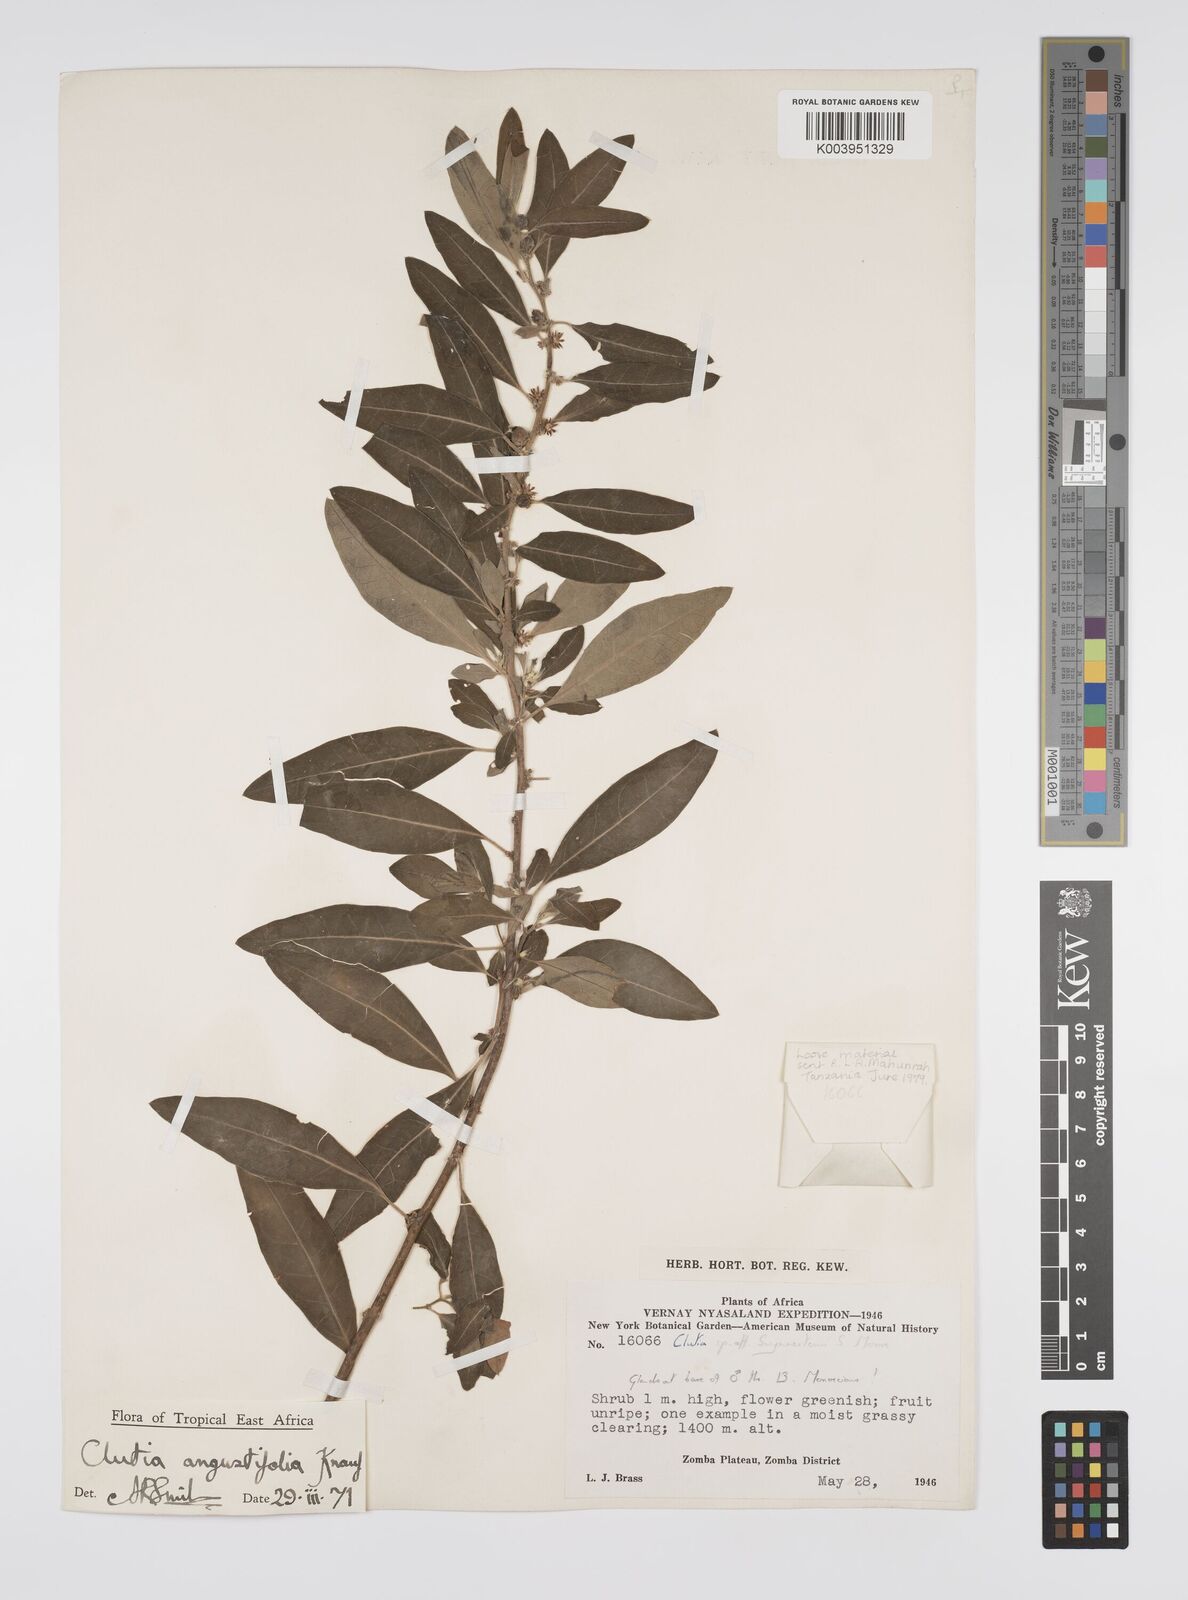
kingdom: Plantae
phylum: Tracheophyta
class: Magnoliopsida
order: Malpighiales
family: Peraceae
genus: Clutia
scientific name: Clutia angustifolia
